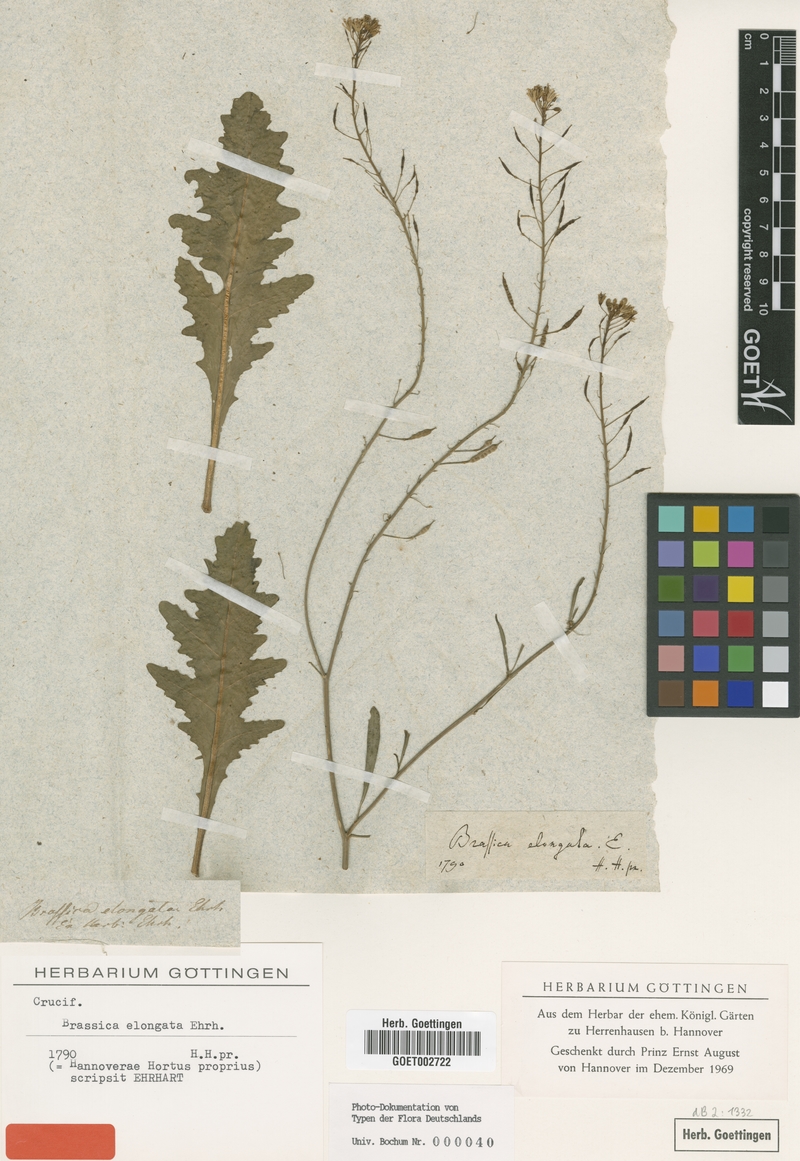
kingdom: Plantae
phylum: Tracheophyta
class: Magnoliopsida
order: Brassicales
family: Brassicaceae
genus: Brassica
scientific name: Brassica elongata
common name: Long-stalked rape
